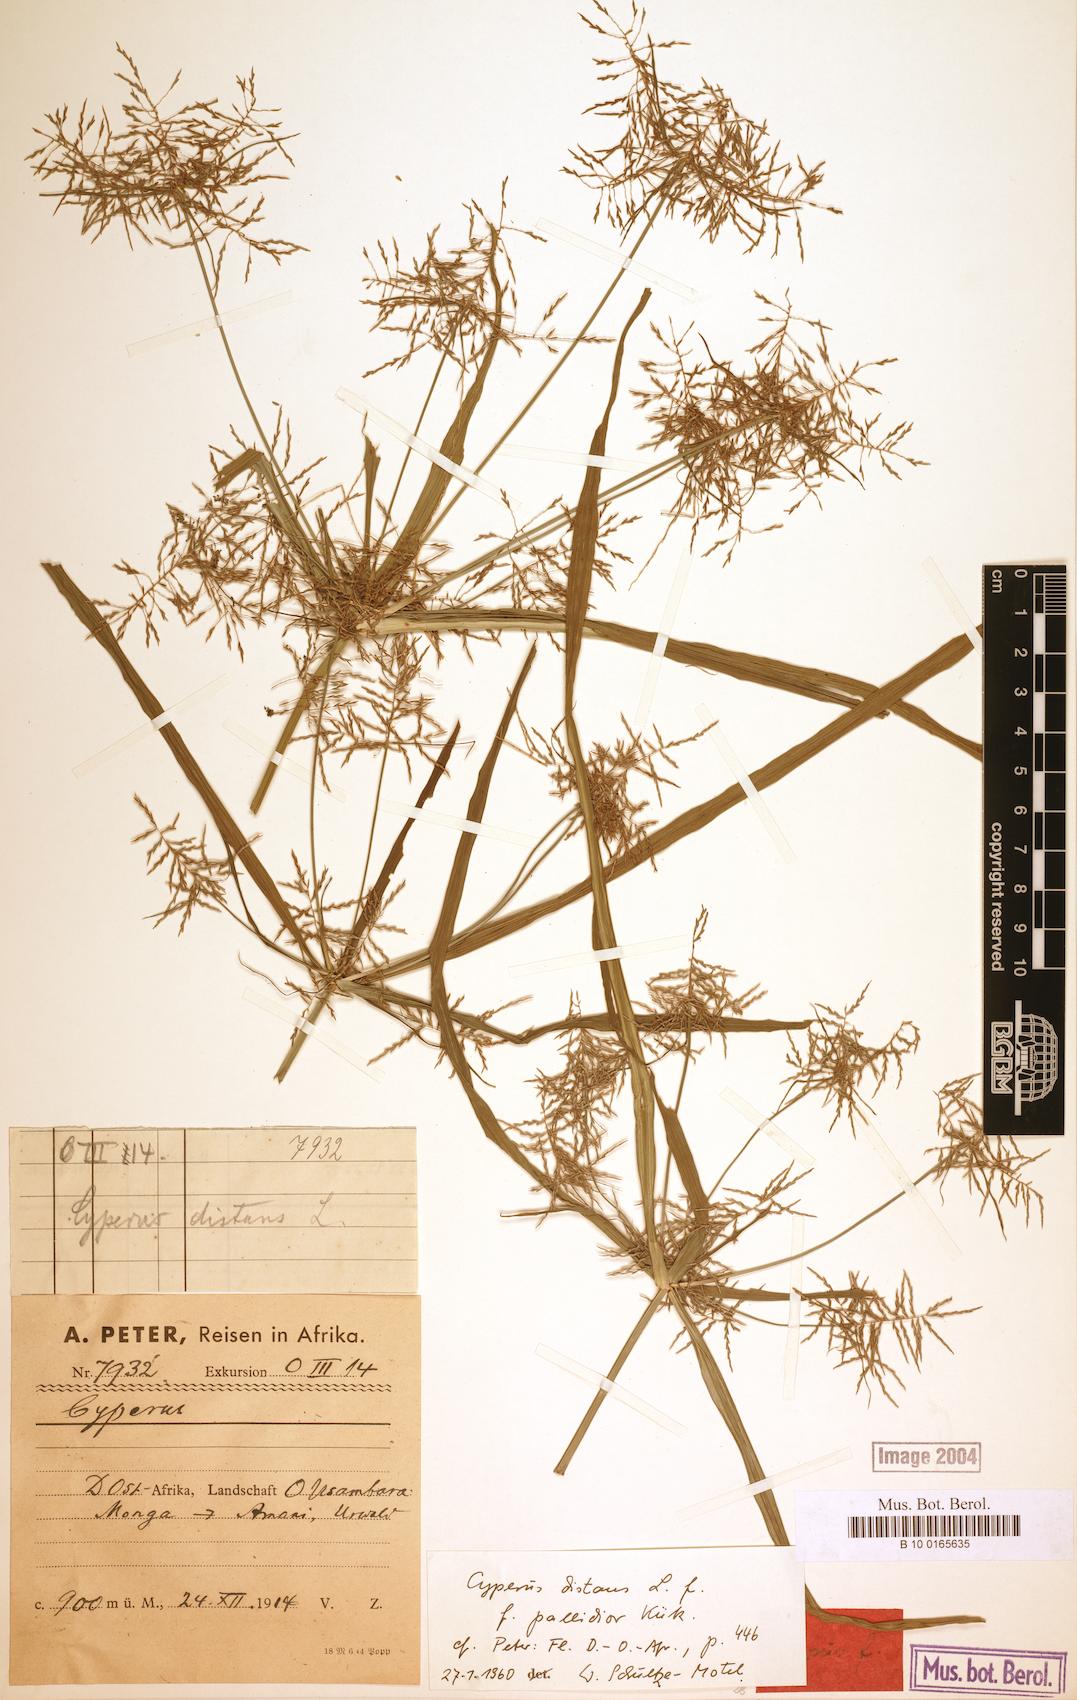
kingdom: Plantae
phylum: Tracheophyta
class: Liliopsida
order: Poales
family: Cyperaceae
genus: Cyperus
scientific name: Cyperus distans
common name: Slender cyperus
